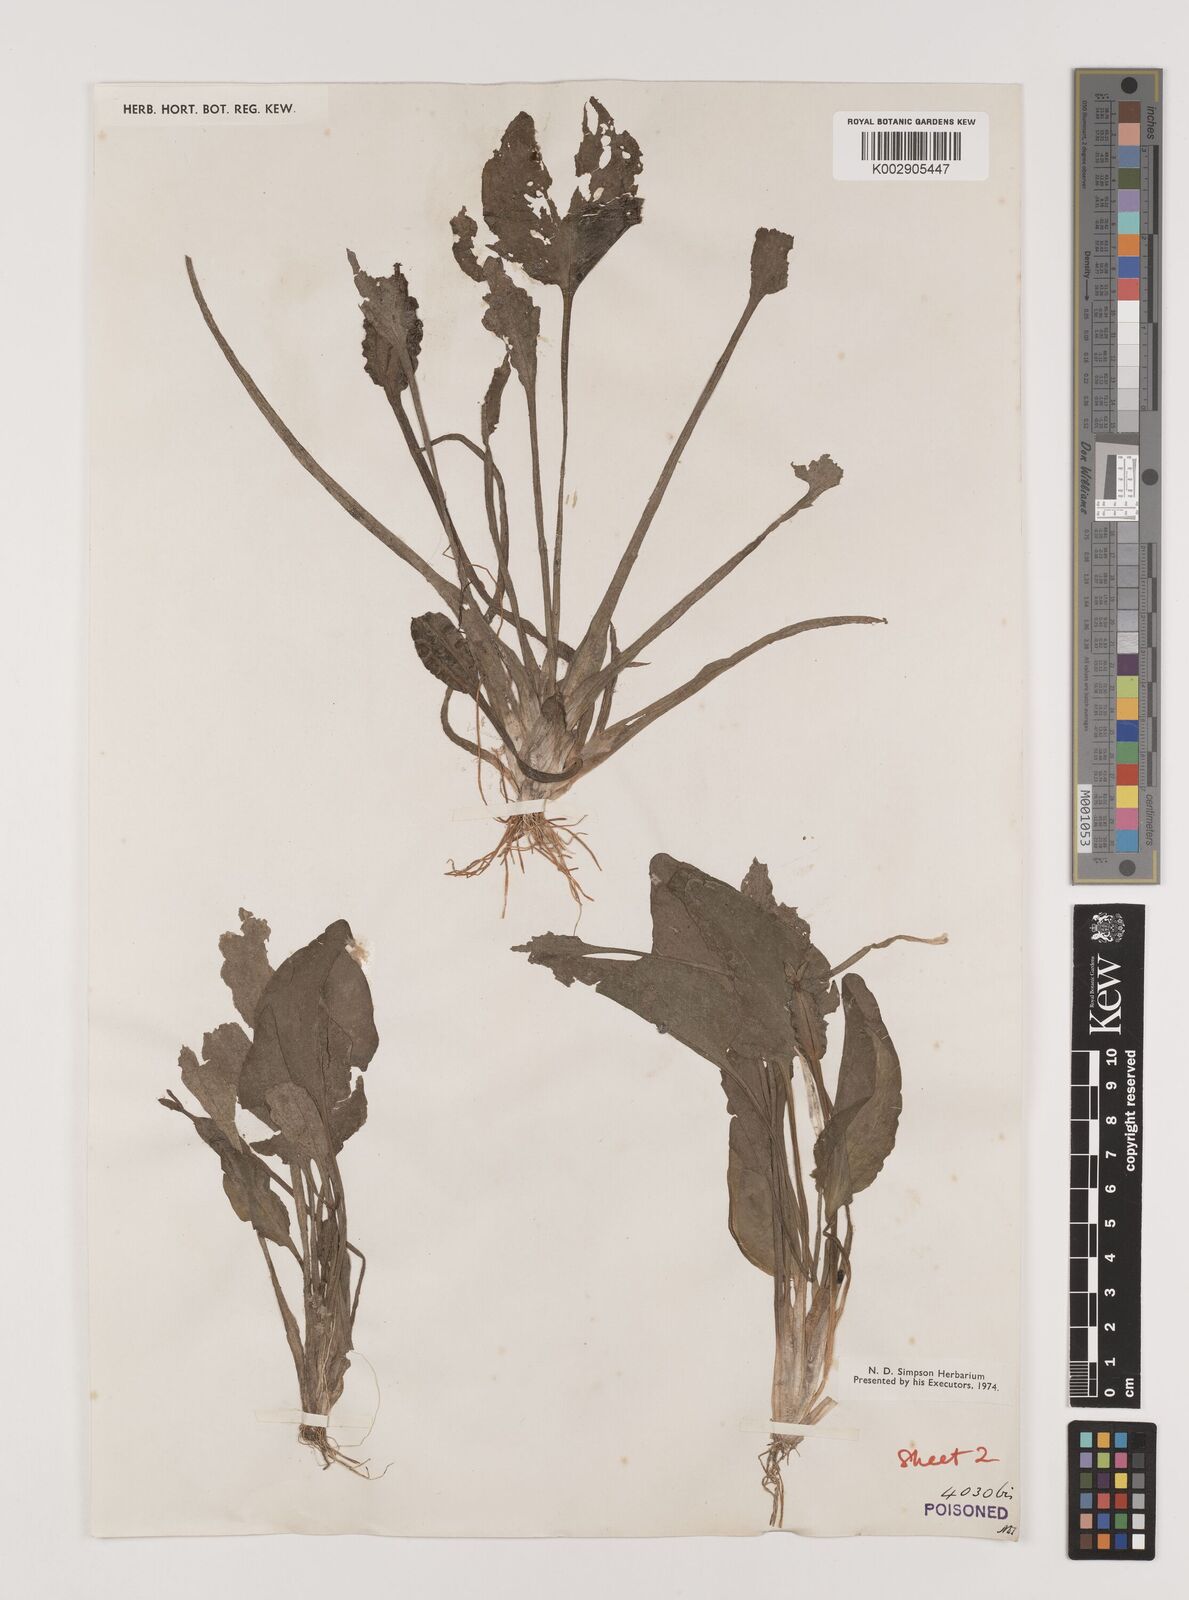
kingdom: Plantae
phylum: Tracheophyta
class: Liliopsida
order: Alismatales
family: Hydrocharitaceae
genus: Ottelia
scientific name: Ottelia alismoides
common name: Duck-lettuce
